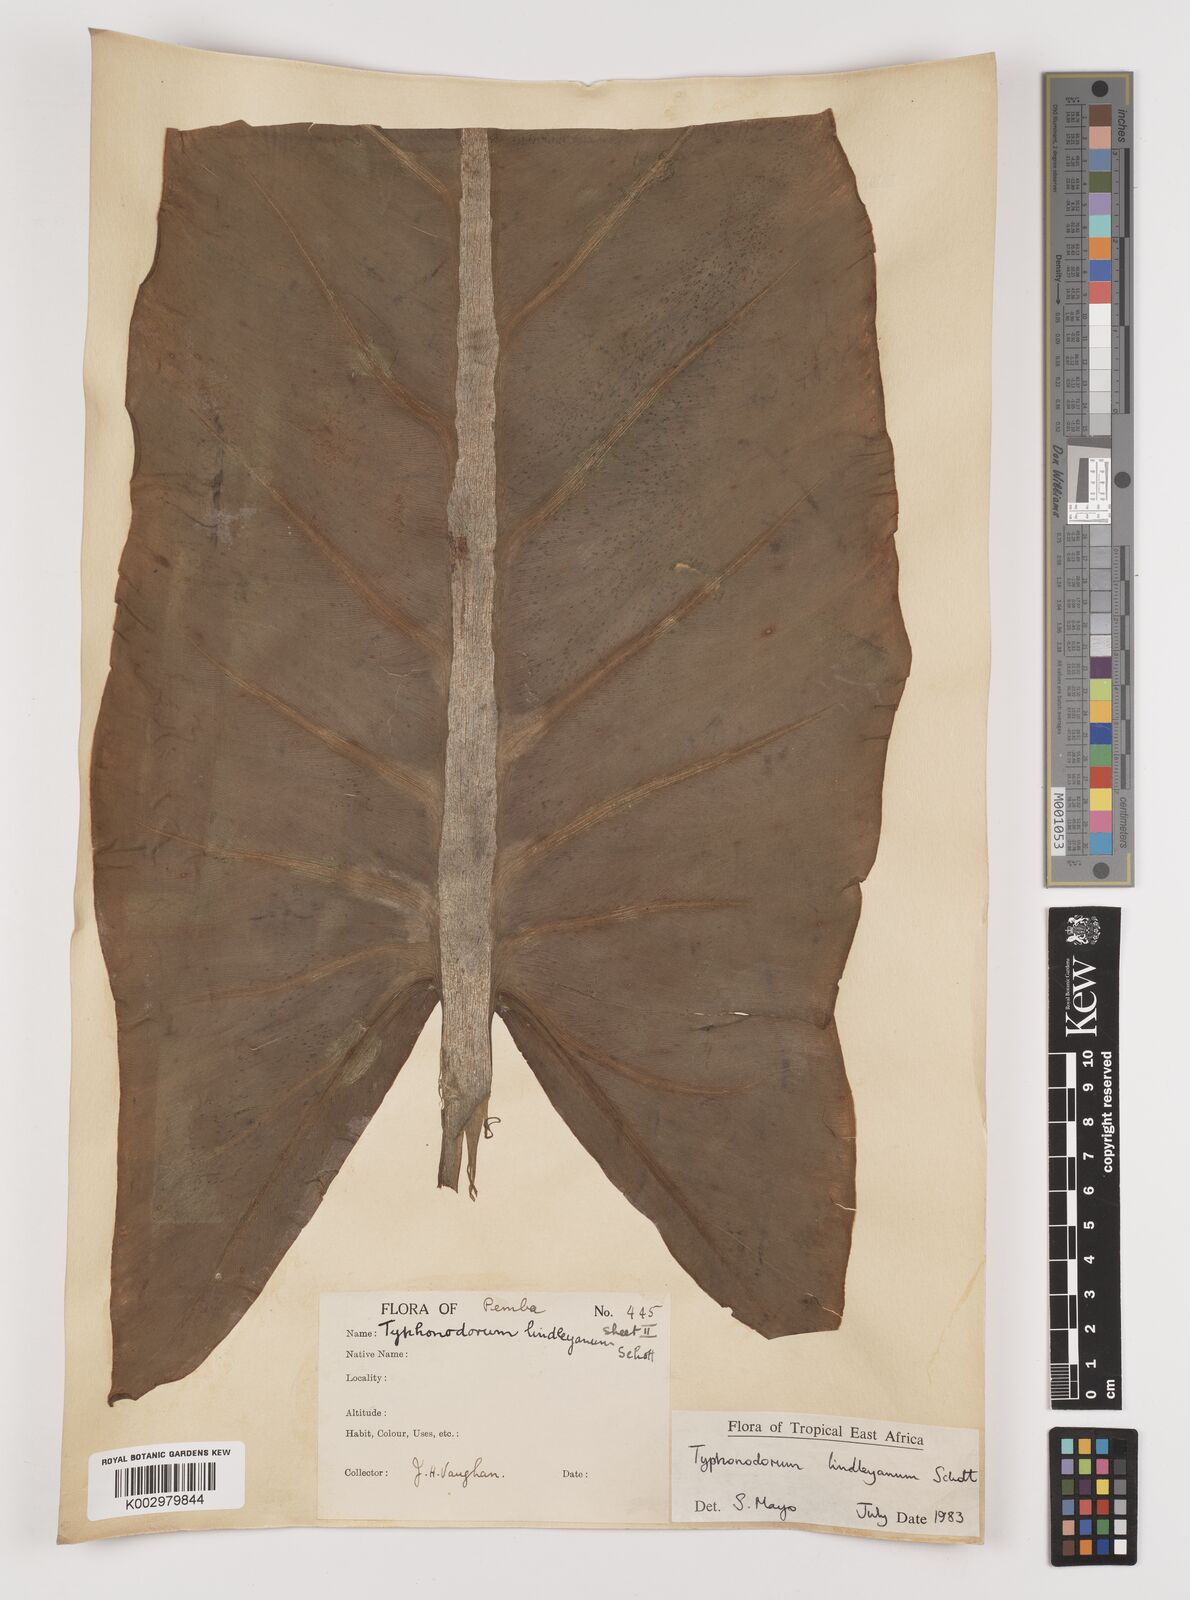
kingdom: Plantae
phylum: Tracheophyta
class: Liliopsida
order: Alismatales
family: Araceae
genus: Typhonodorum
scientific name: Typhonodorum lindleyanum
